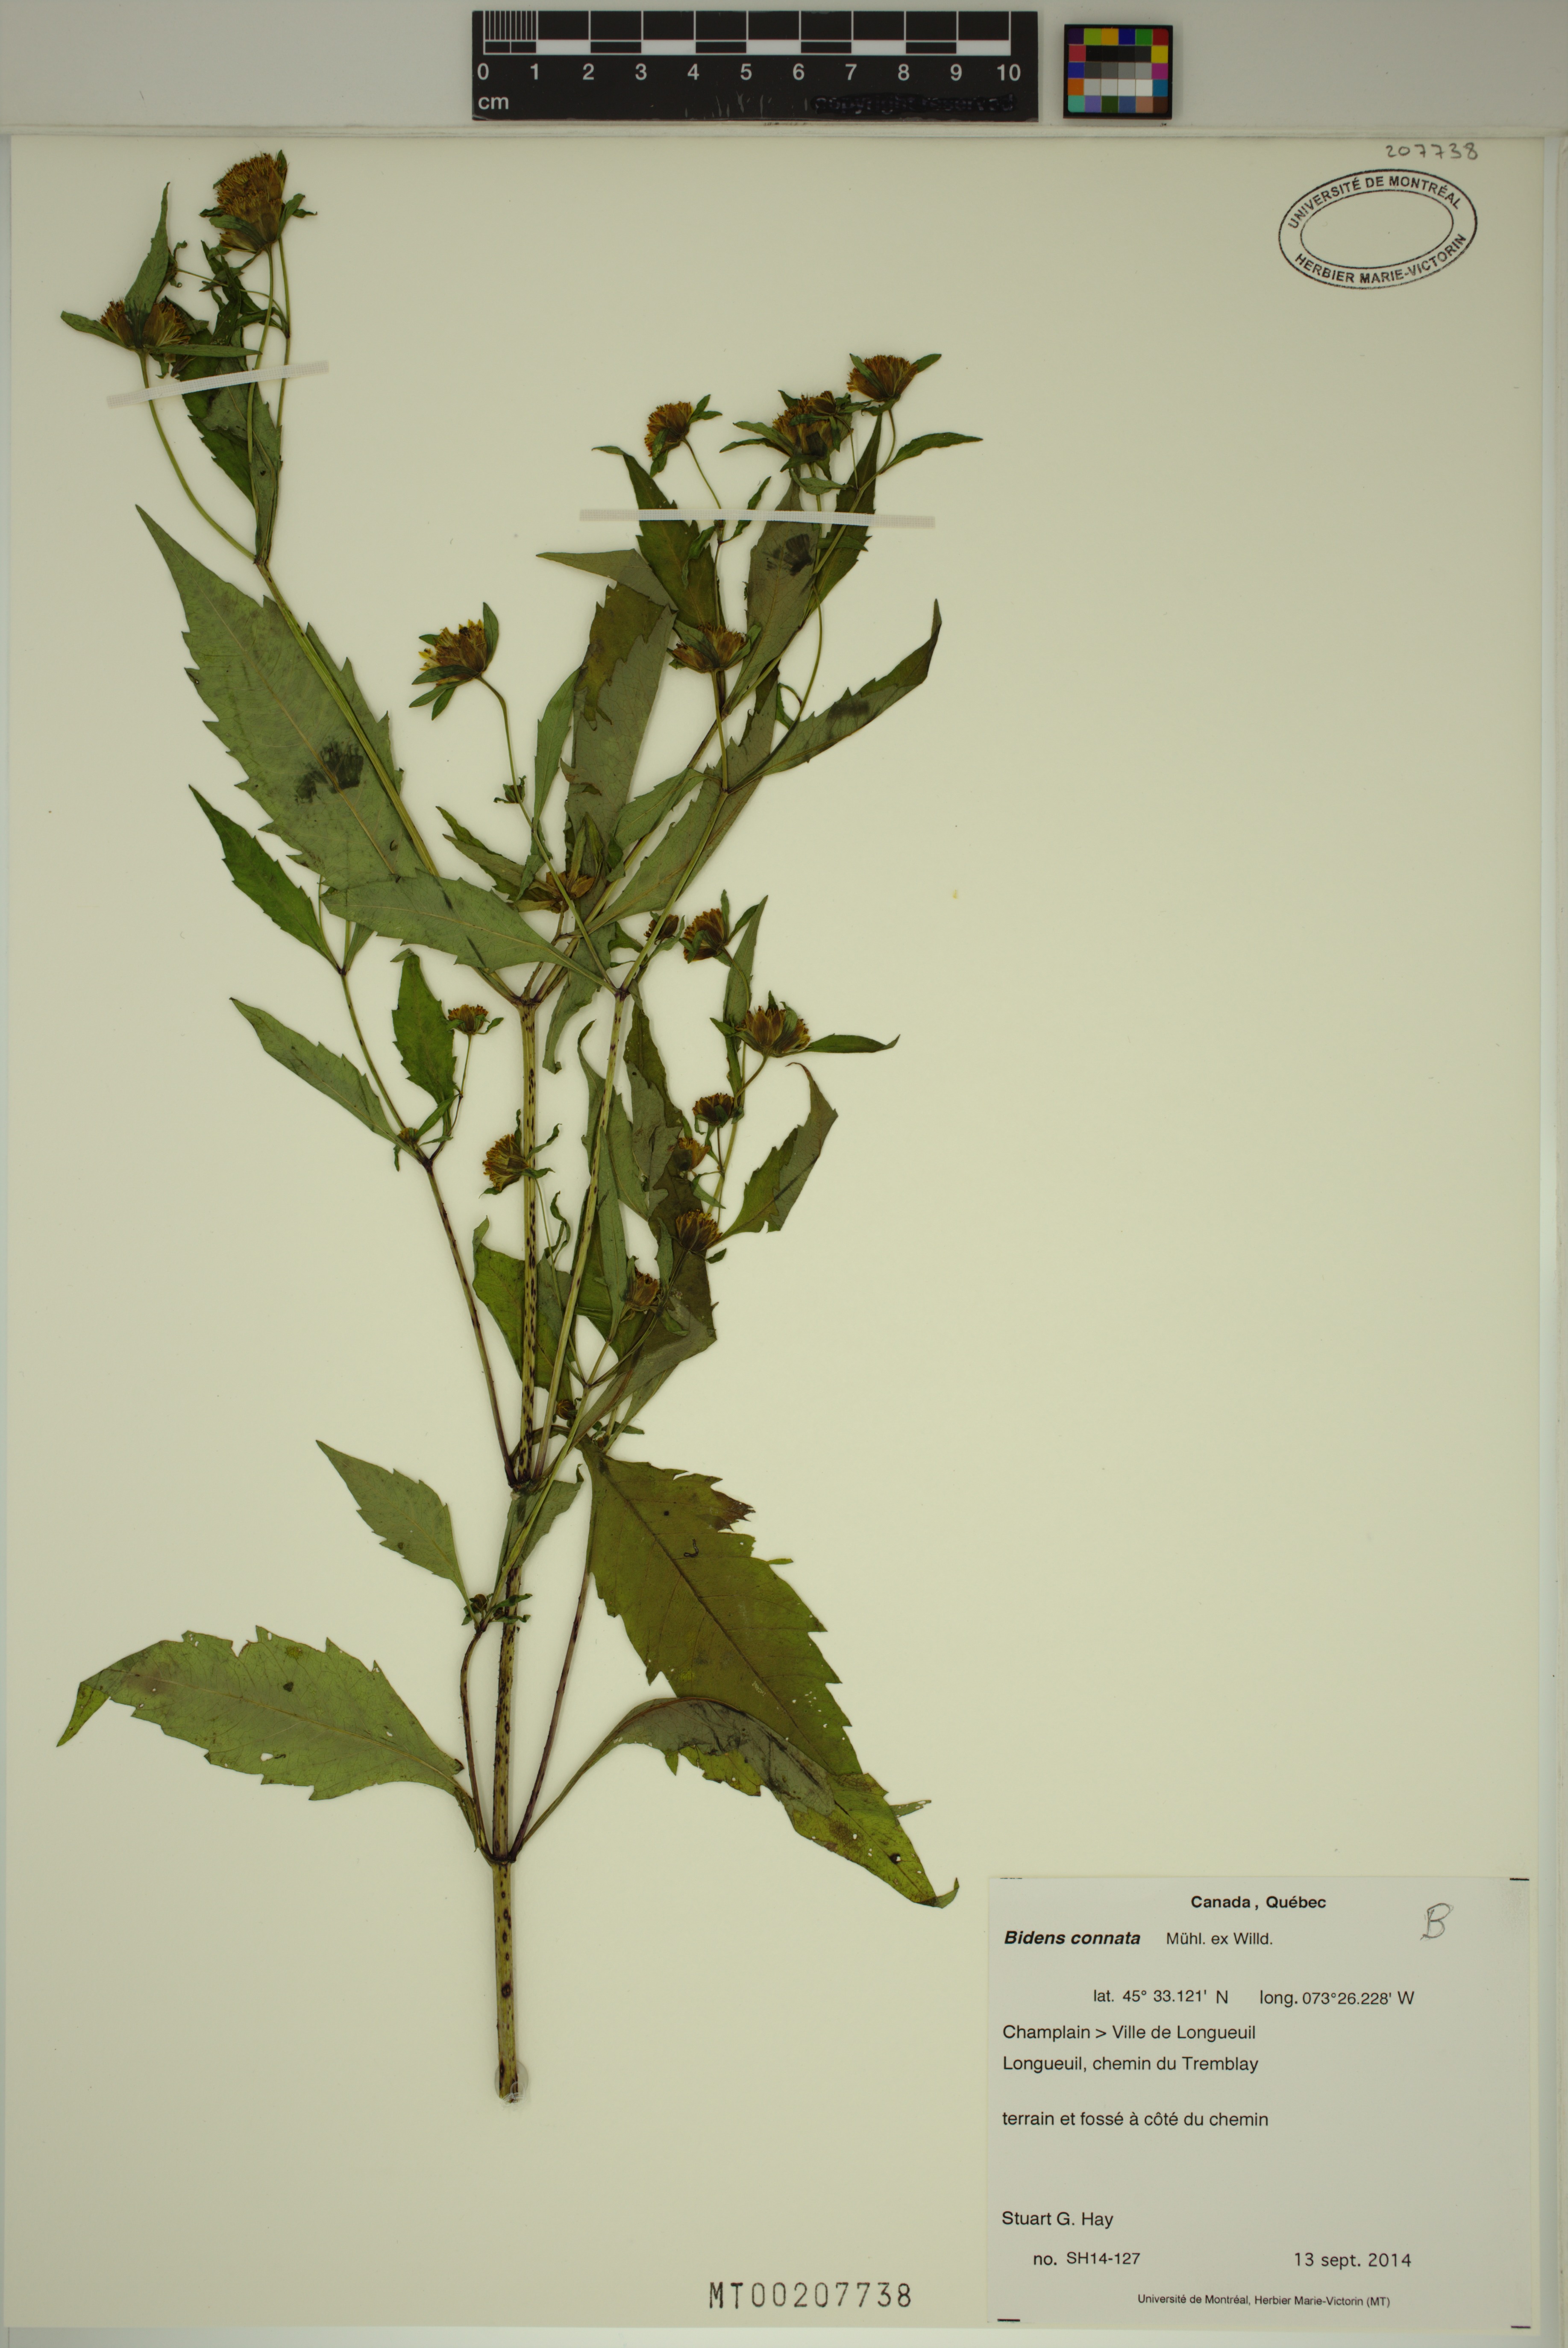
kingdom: Plantae
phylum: Tracheophyta
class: Magnoliopsida
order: Asterales
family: Asteraceae
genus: Bidens
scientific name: Bidens connata
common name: London bur-marigold
